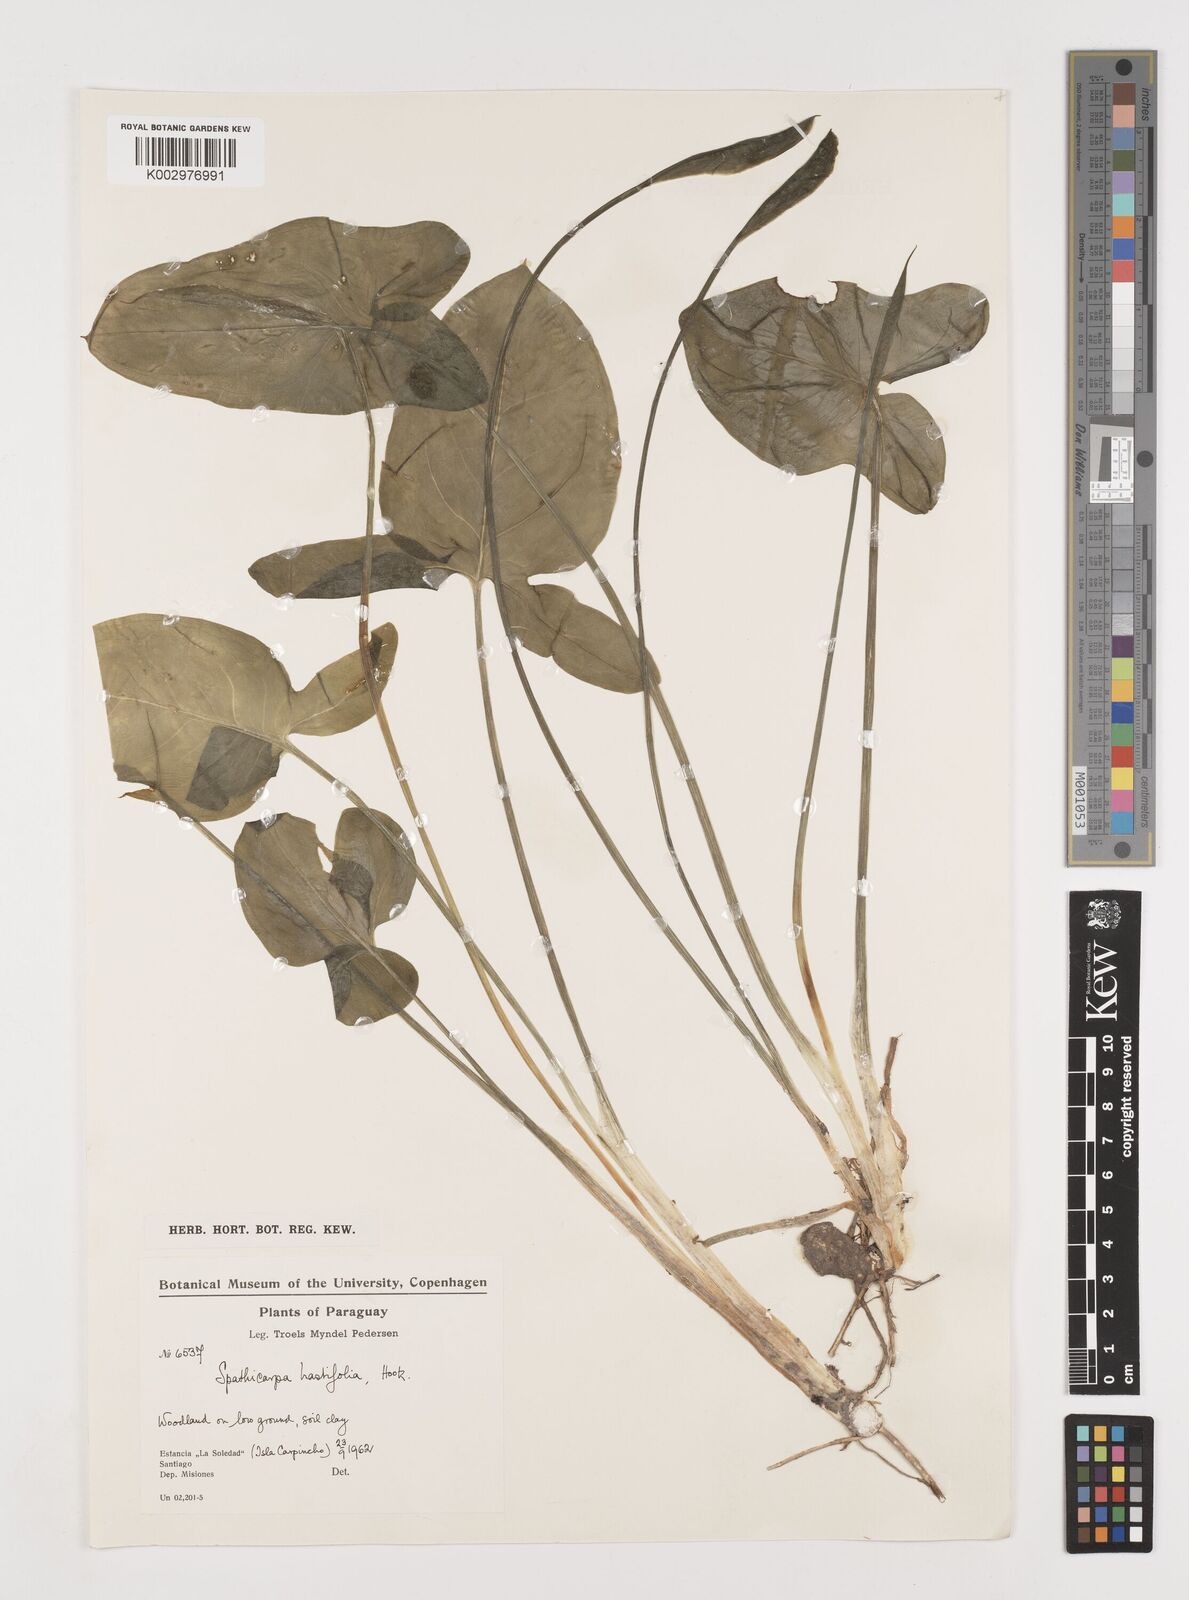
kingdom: Plantae
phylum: Tracheophyta
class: Liliopsida
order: Alismatales
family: Araceae
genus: Spathicarpa
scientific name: Spathicarpa hastifolia
